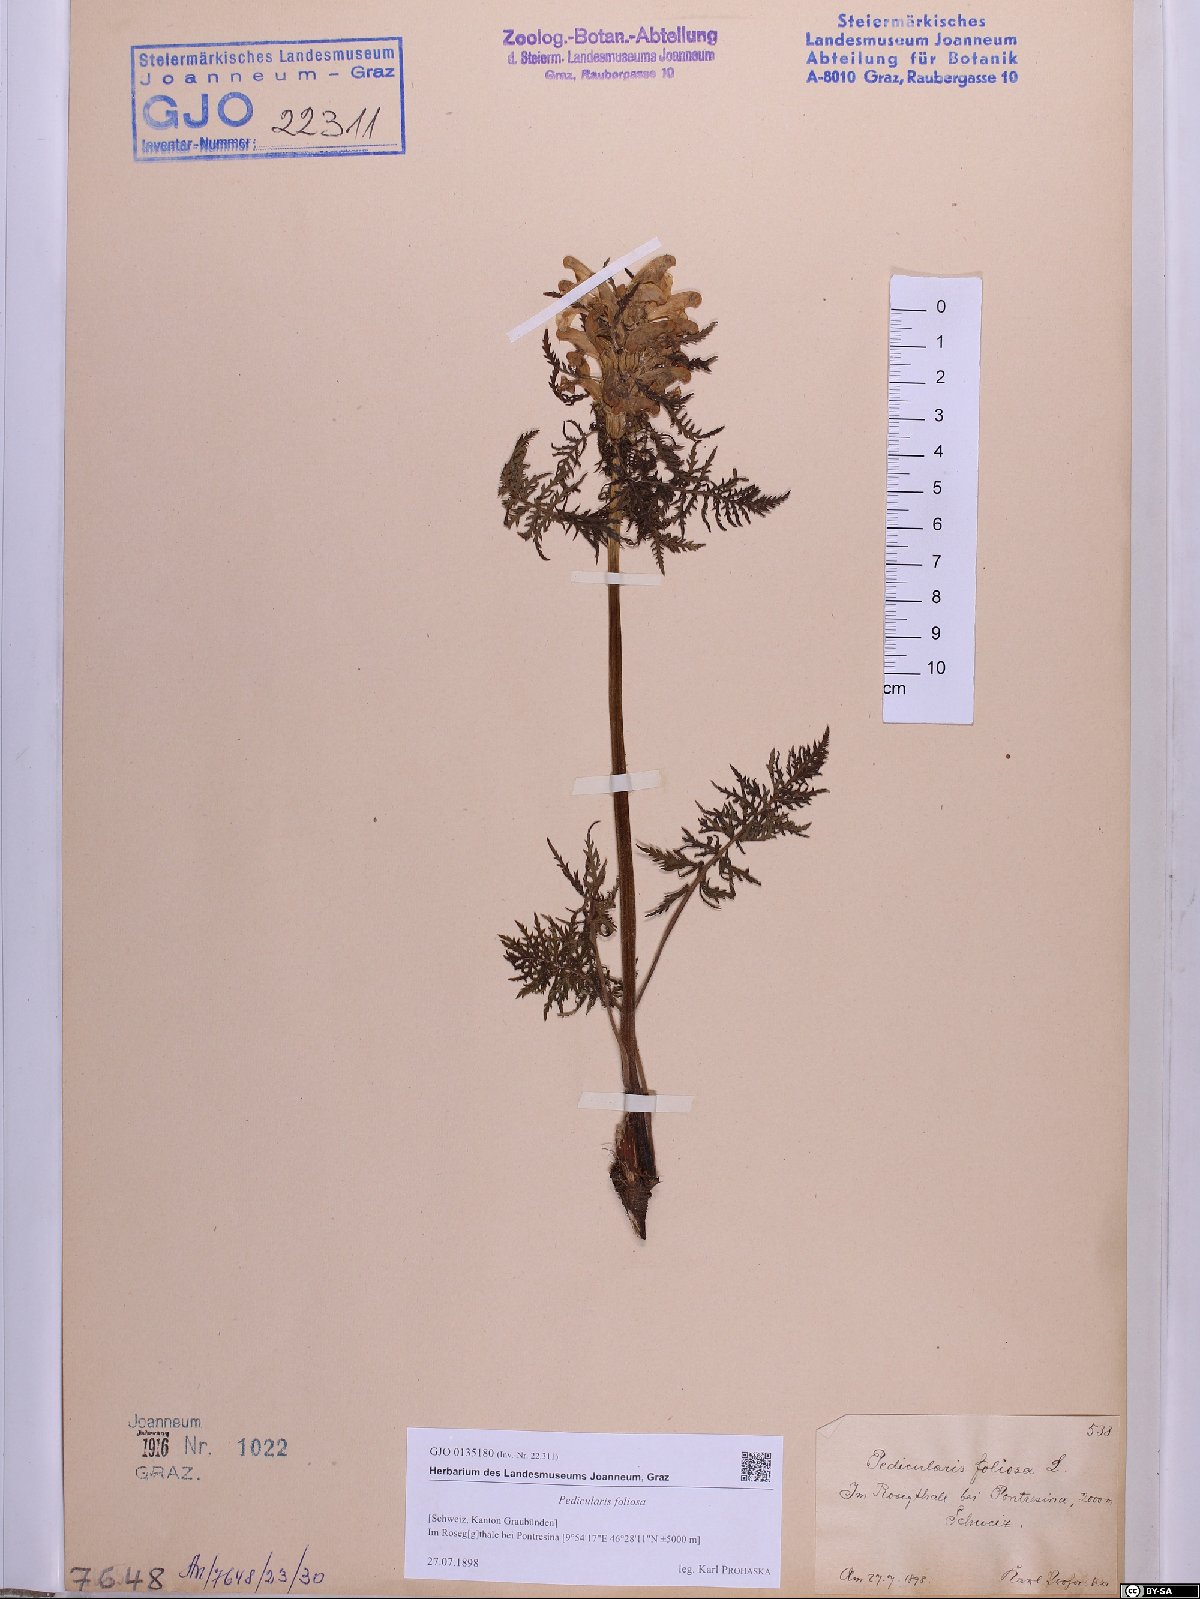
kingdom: Plantae
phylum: Tracheophyta
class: Magnoliopsida
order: Lamiales
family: Orobanchaceae
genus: Pedicularis
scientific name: Pedicularis foliosa
